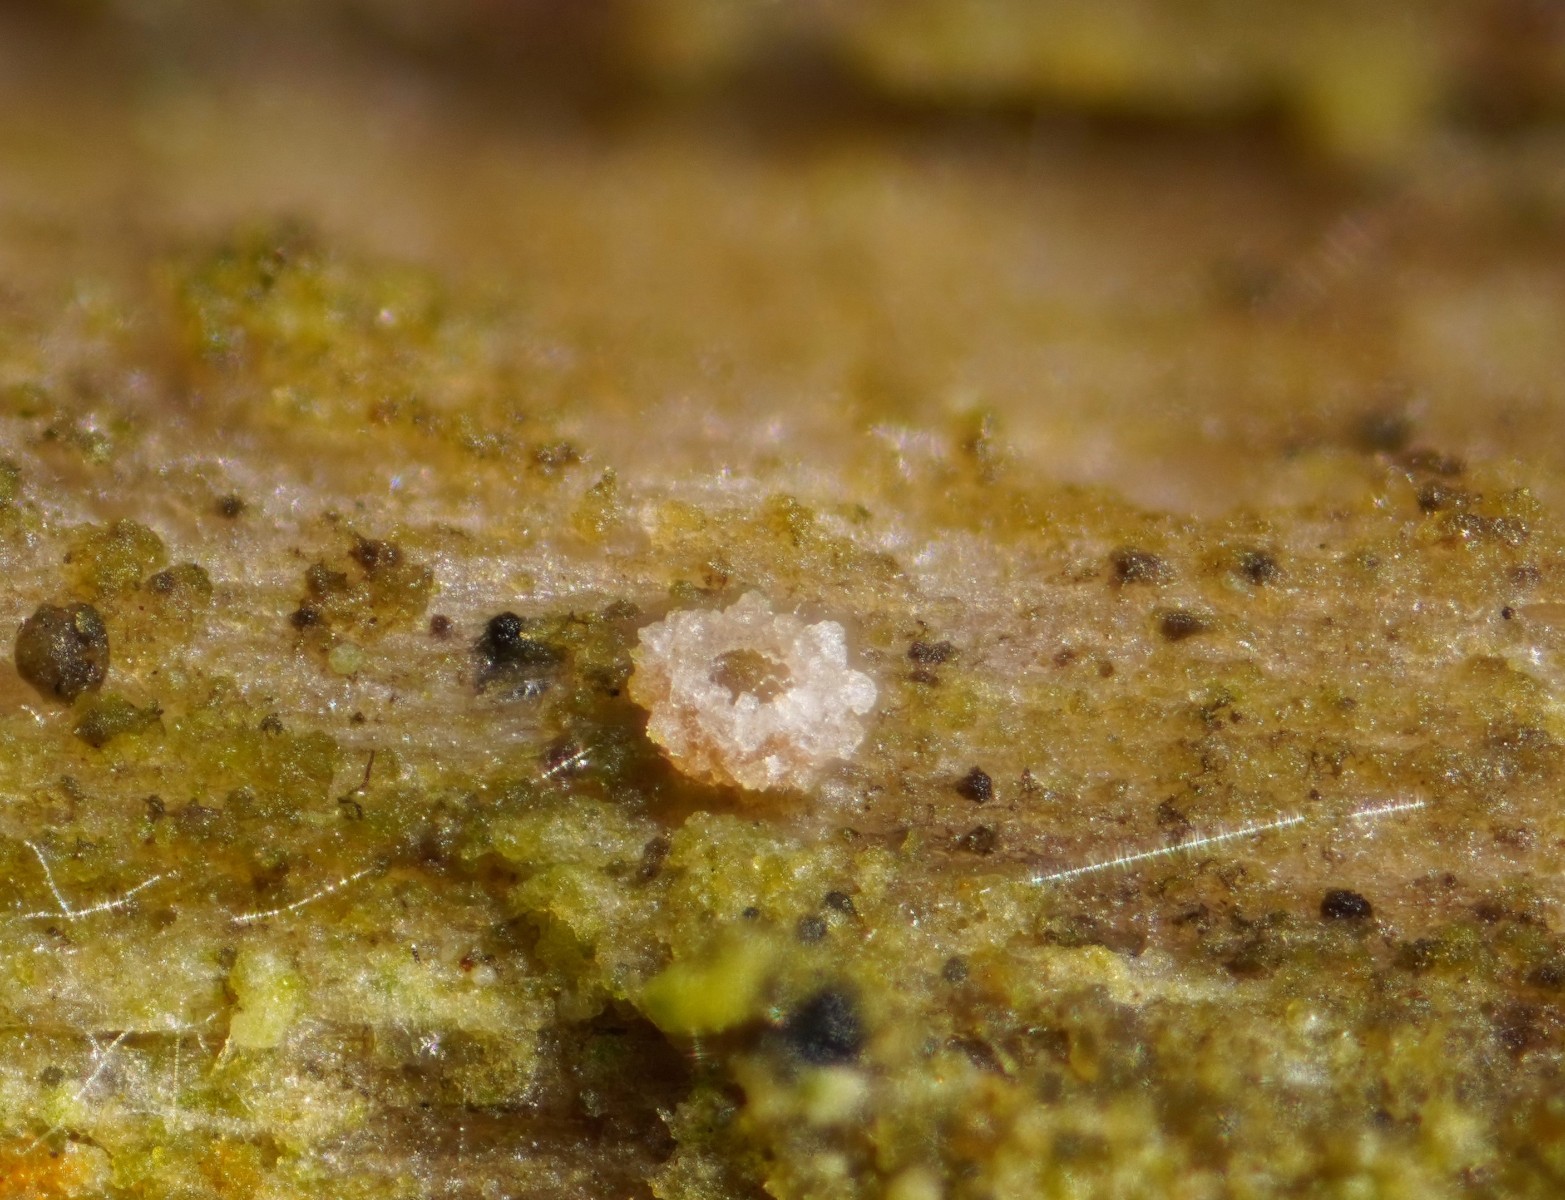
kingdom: Fungi
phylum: Ascomycota
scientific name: Ascomycota
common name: sæksvampe
